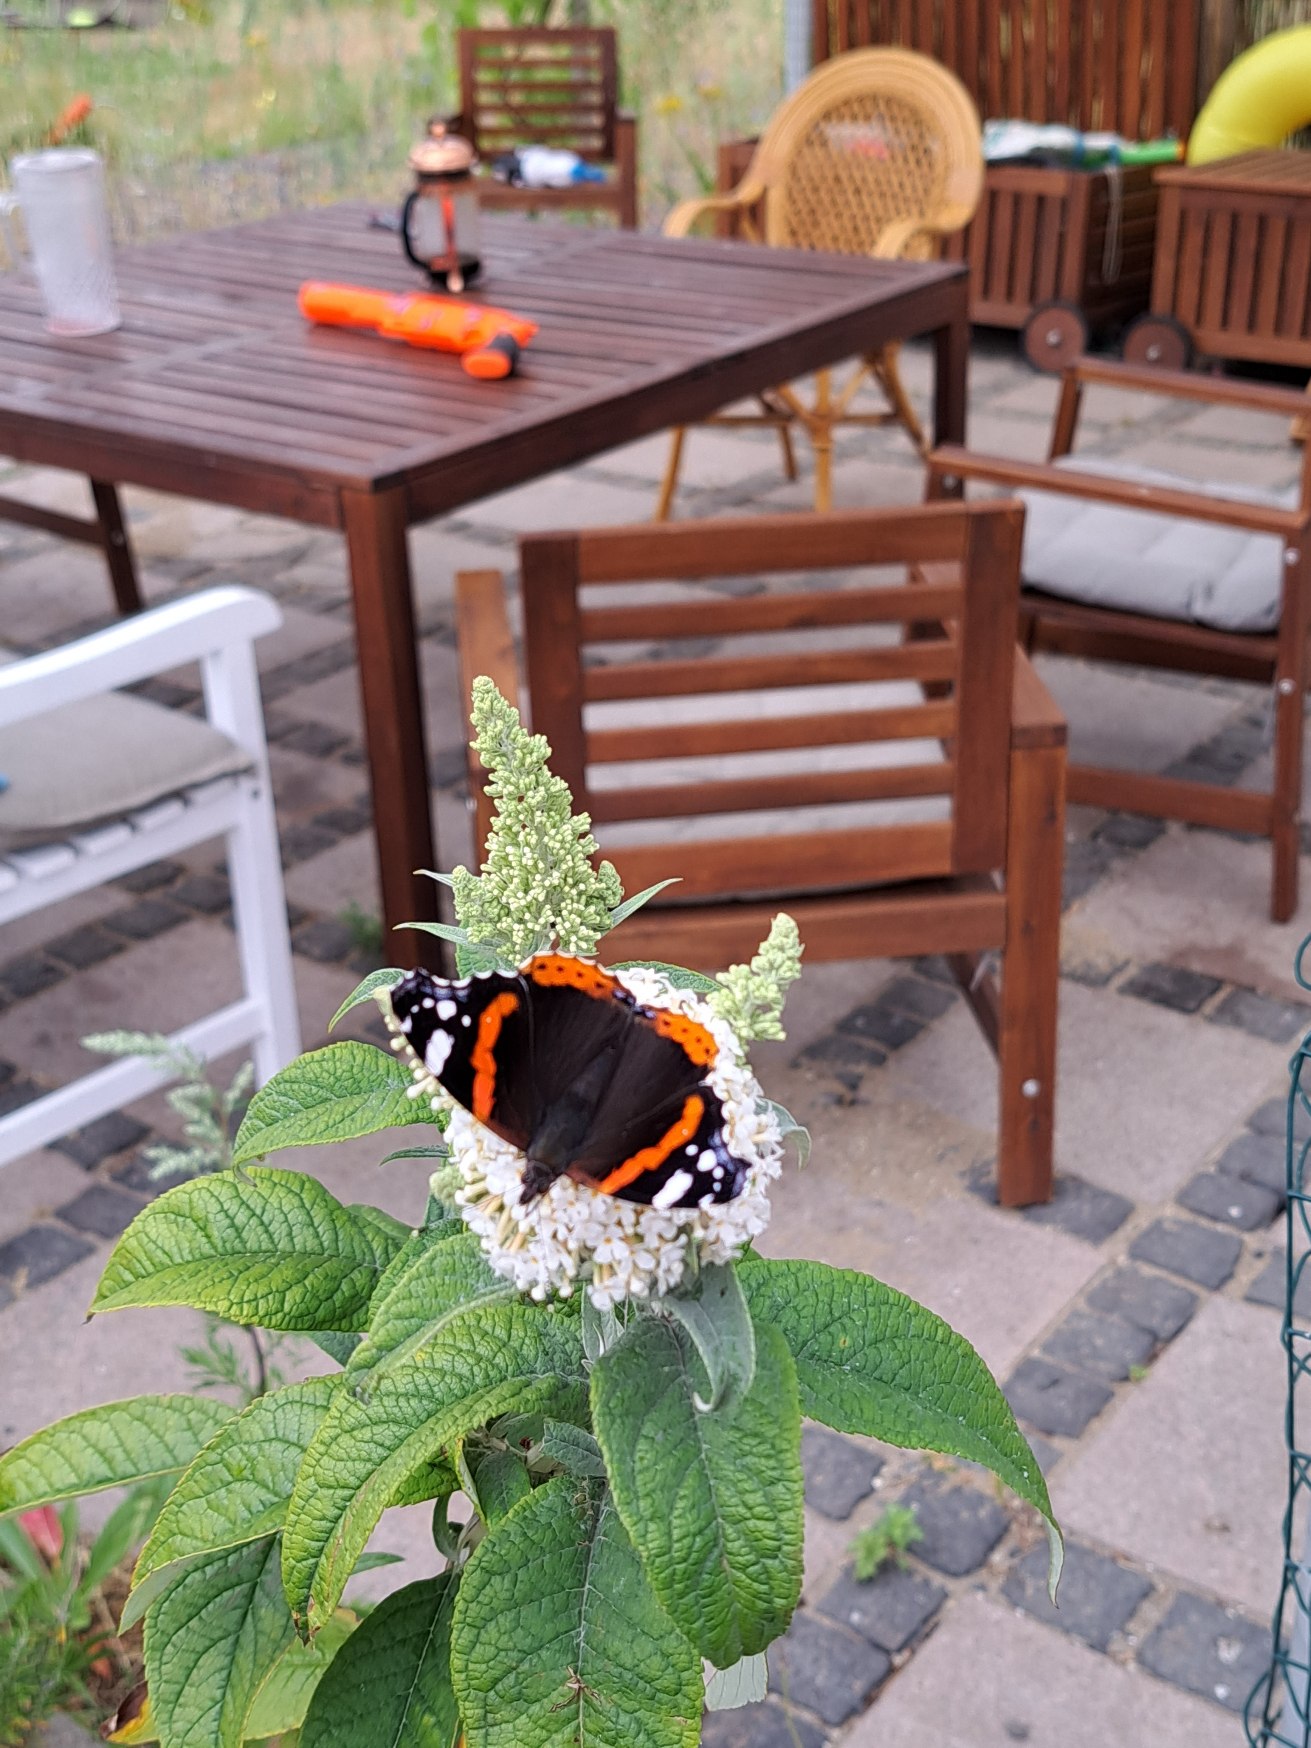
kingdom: Animalia
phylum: Arthropoda
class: Insecta
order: Lepidoptera
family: Nymphalidae
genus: Vanessa
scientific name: Vanessa atalanta
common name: Admiral
